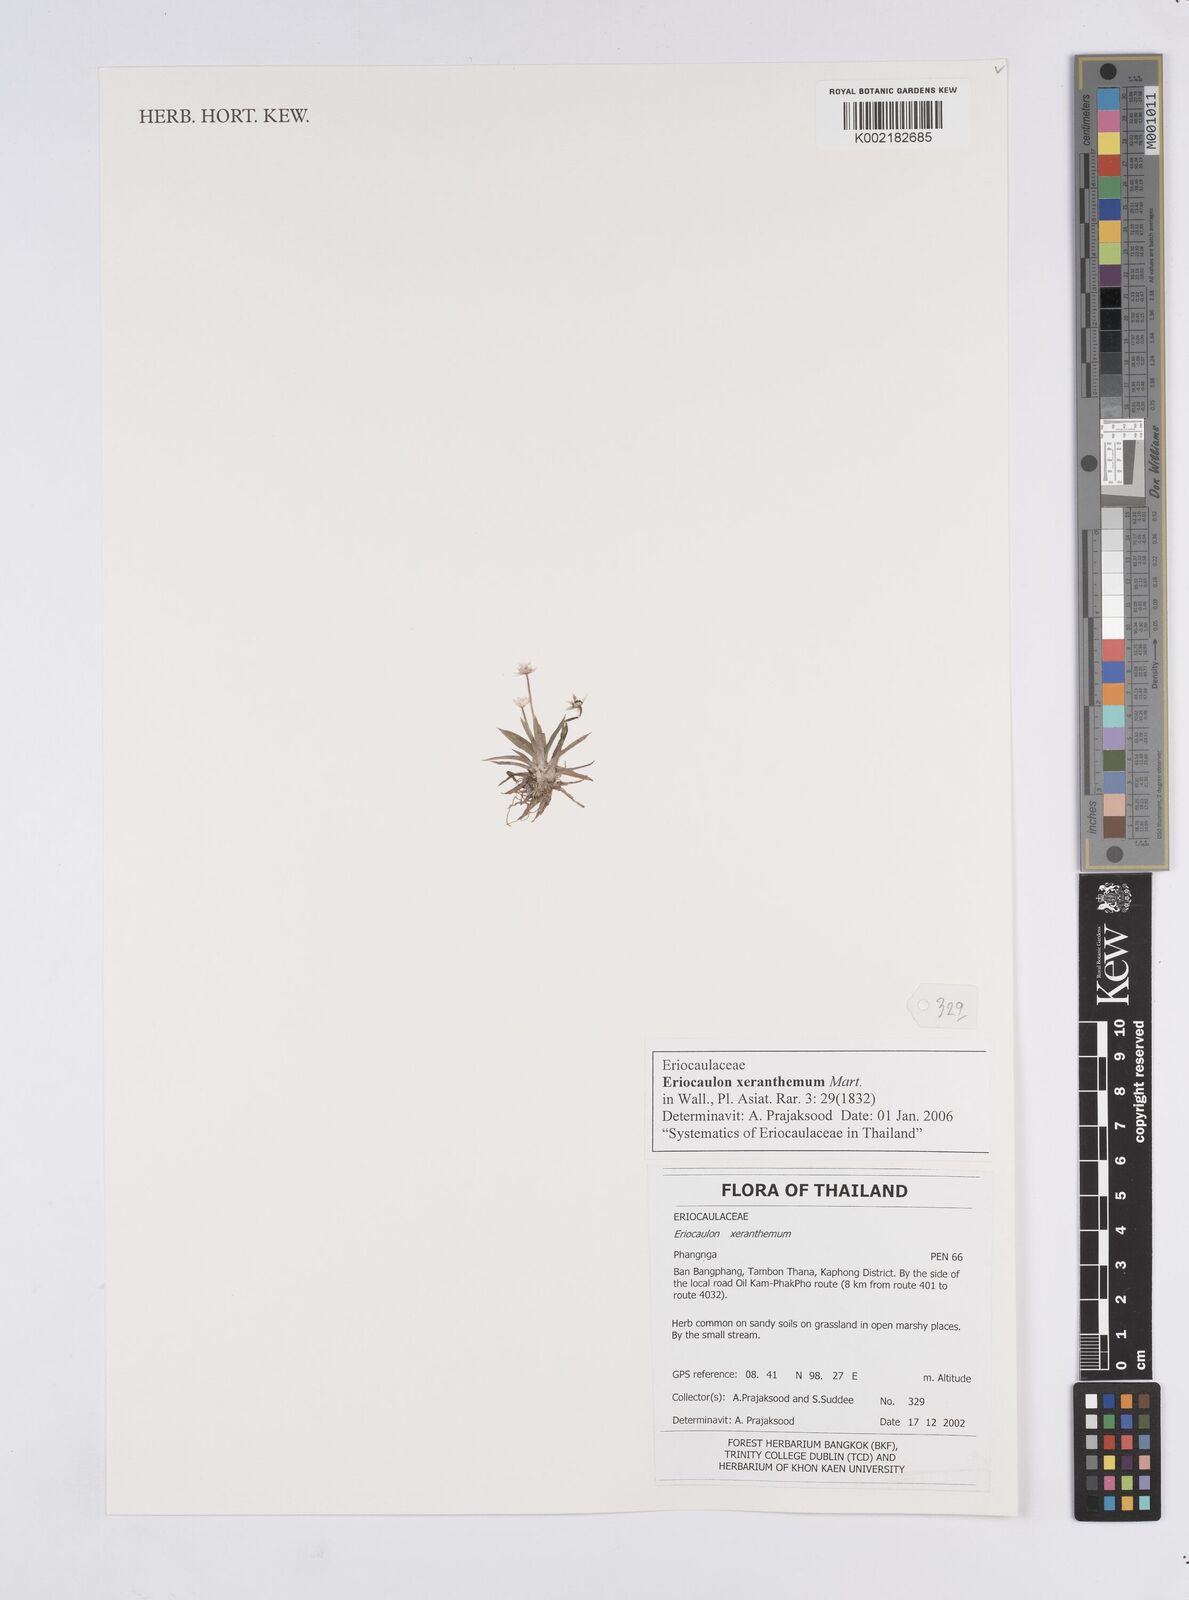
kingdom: Plantae
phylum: Tracheophyta
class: Liliopsida
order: Poales
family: Eriocaulaceae
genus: Eriocaulon
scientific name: Eriocaulon xeranthemum
